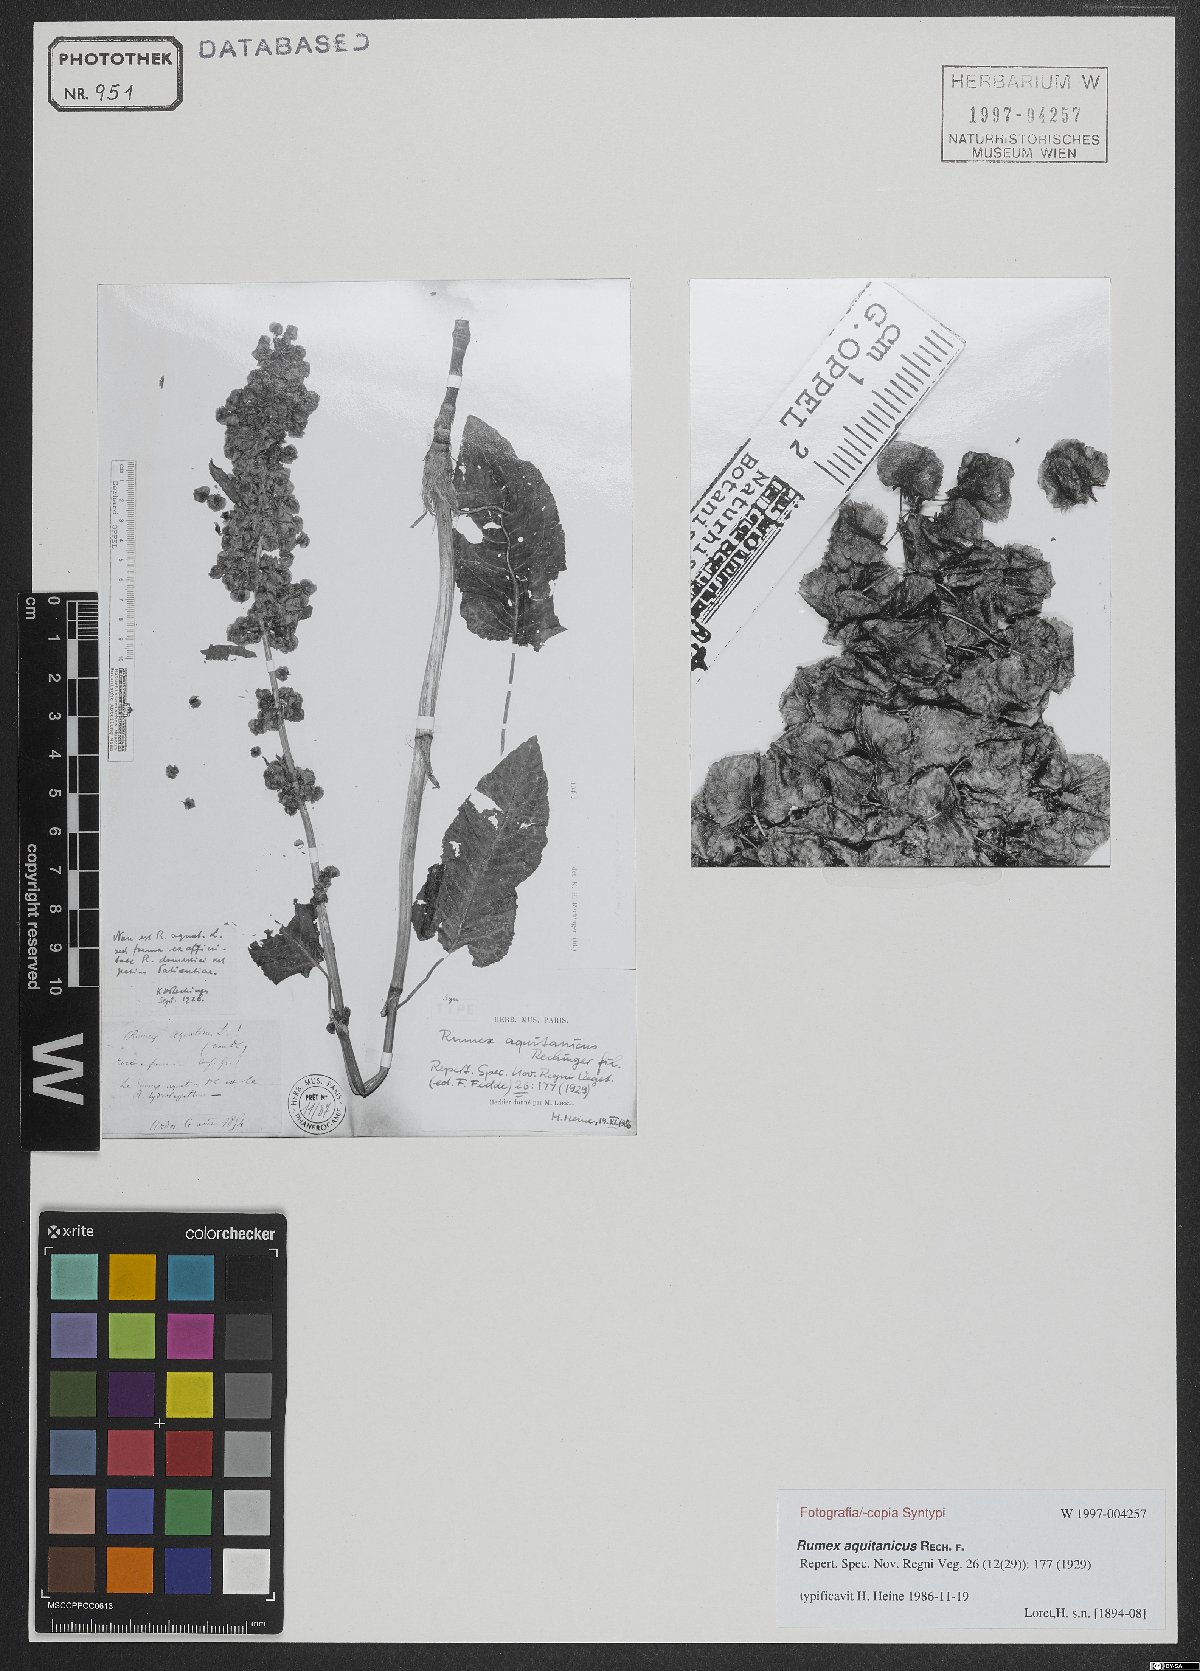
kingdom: Plantae
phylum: Tracheophyta
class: Magnoliopsida
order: Caryophyllales
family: Polygonaceae
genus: Rumex
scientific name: Rumex aquitanicus
